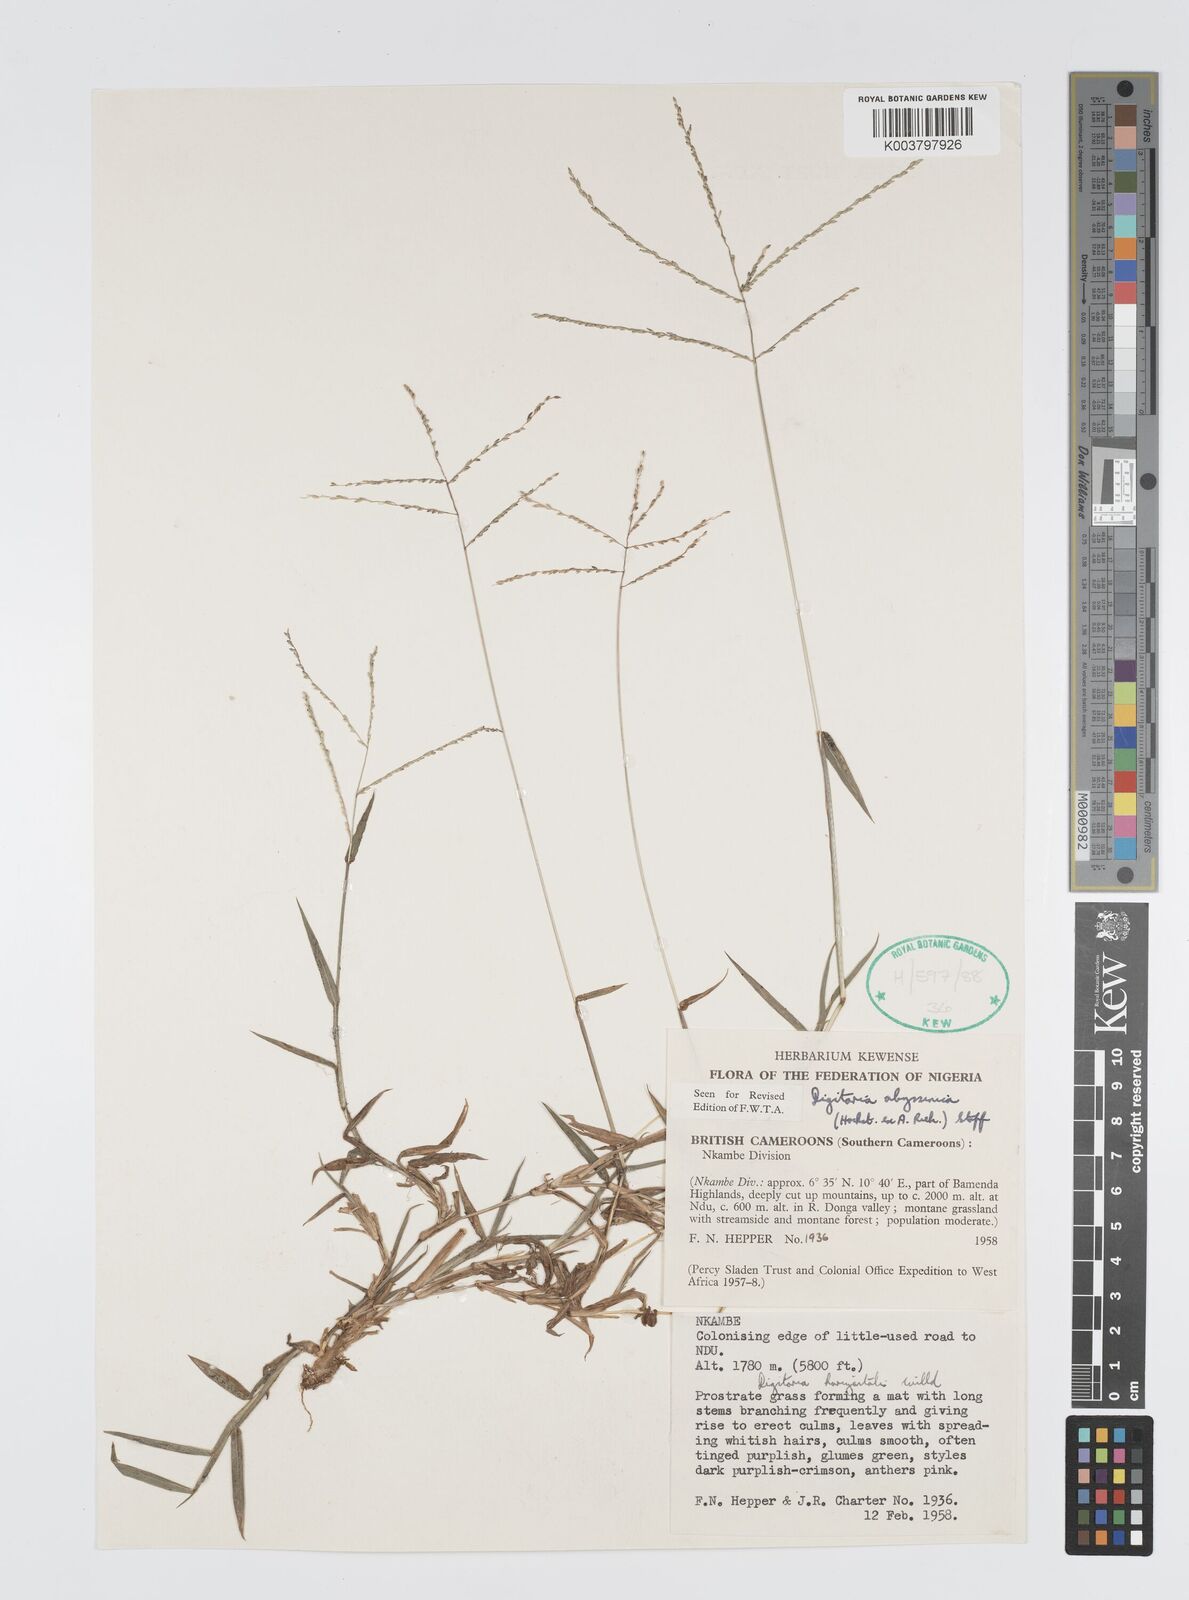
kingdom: Plantae
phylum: Tracheophyta
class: Liliopsida
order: Poales
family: Poaceae
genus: Digitaria
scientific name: Digitaria abyssinica
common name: African couchgrass
